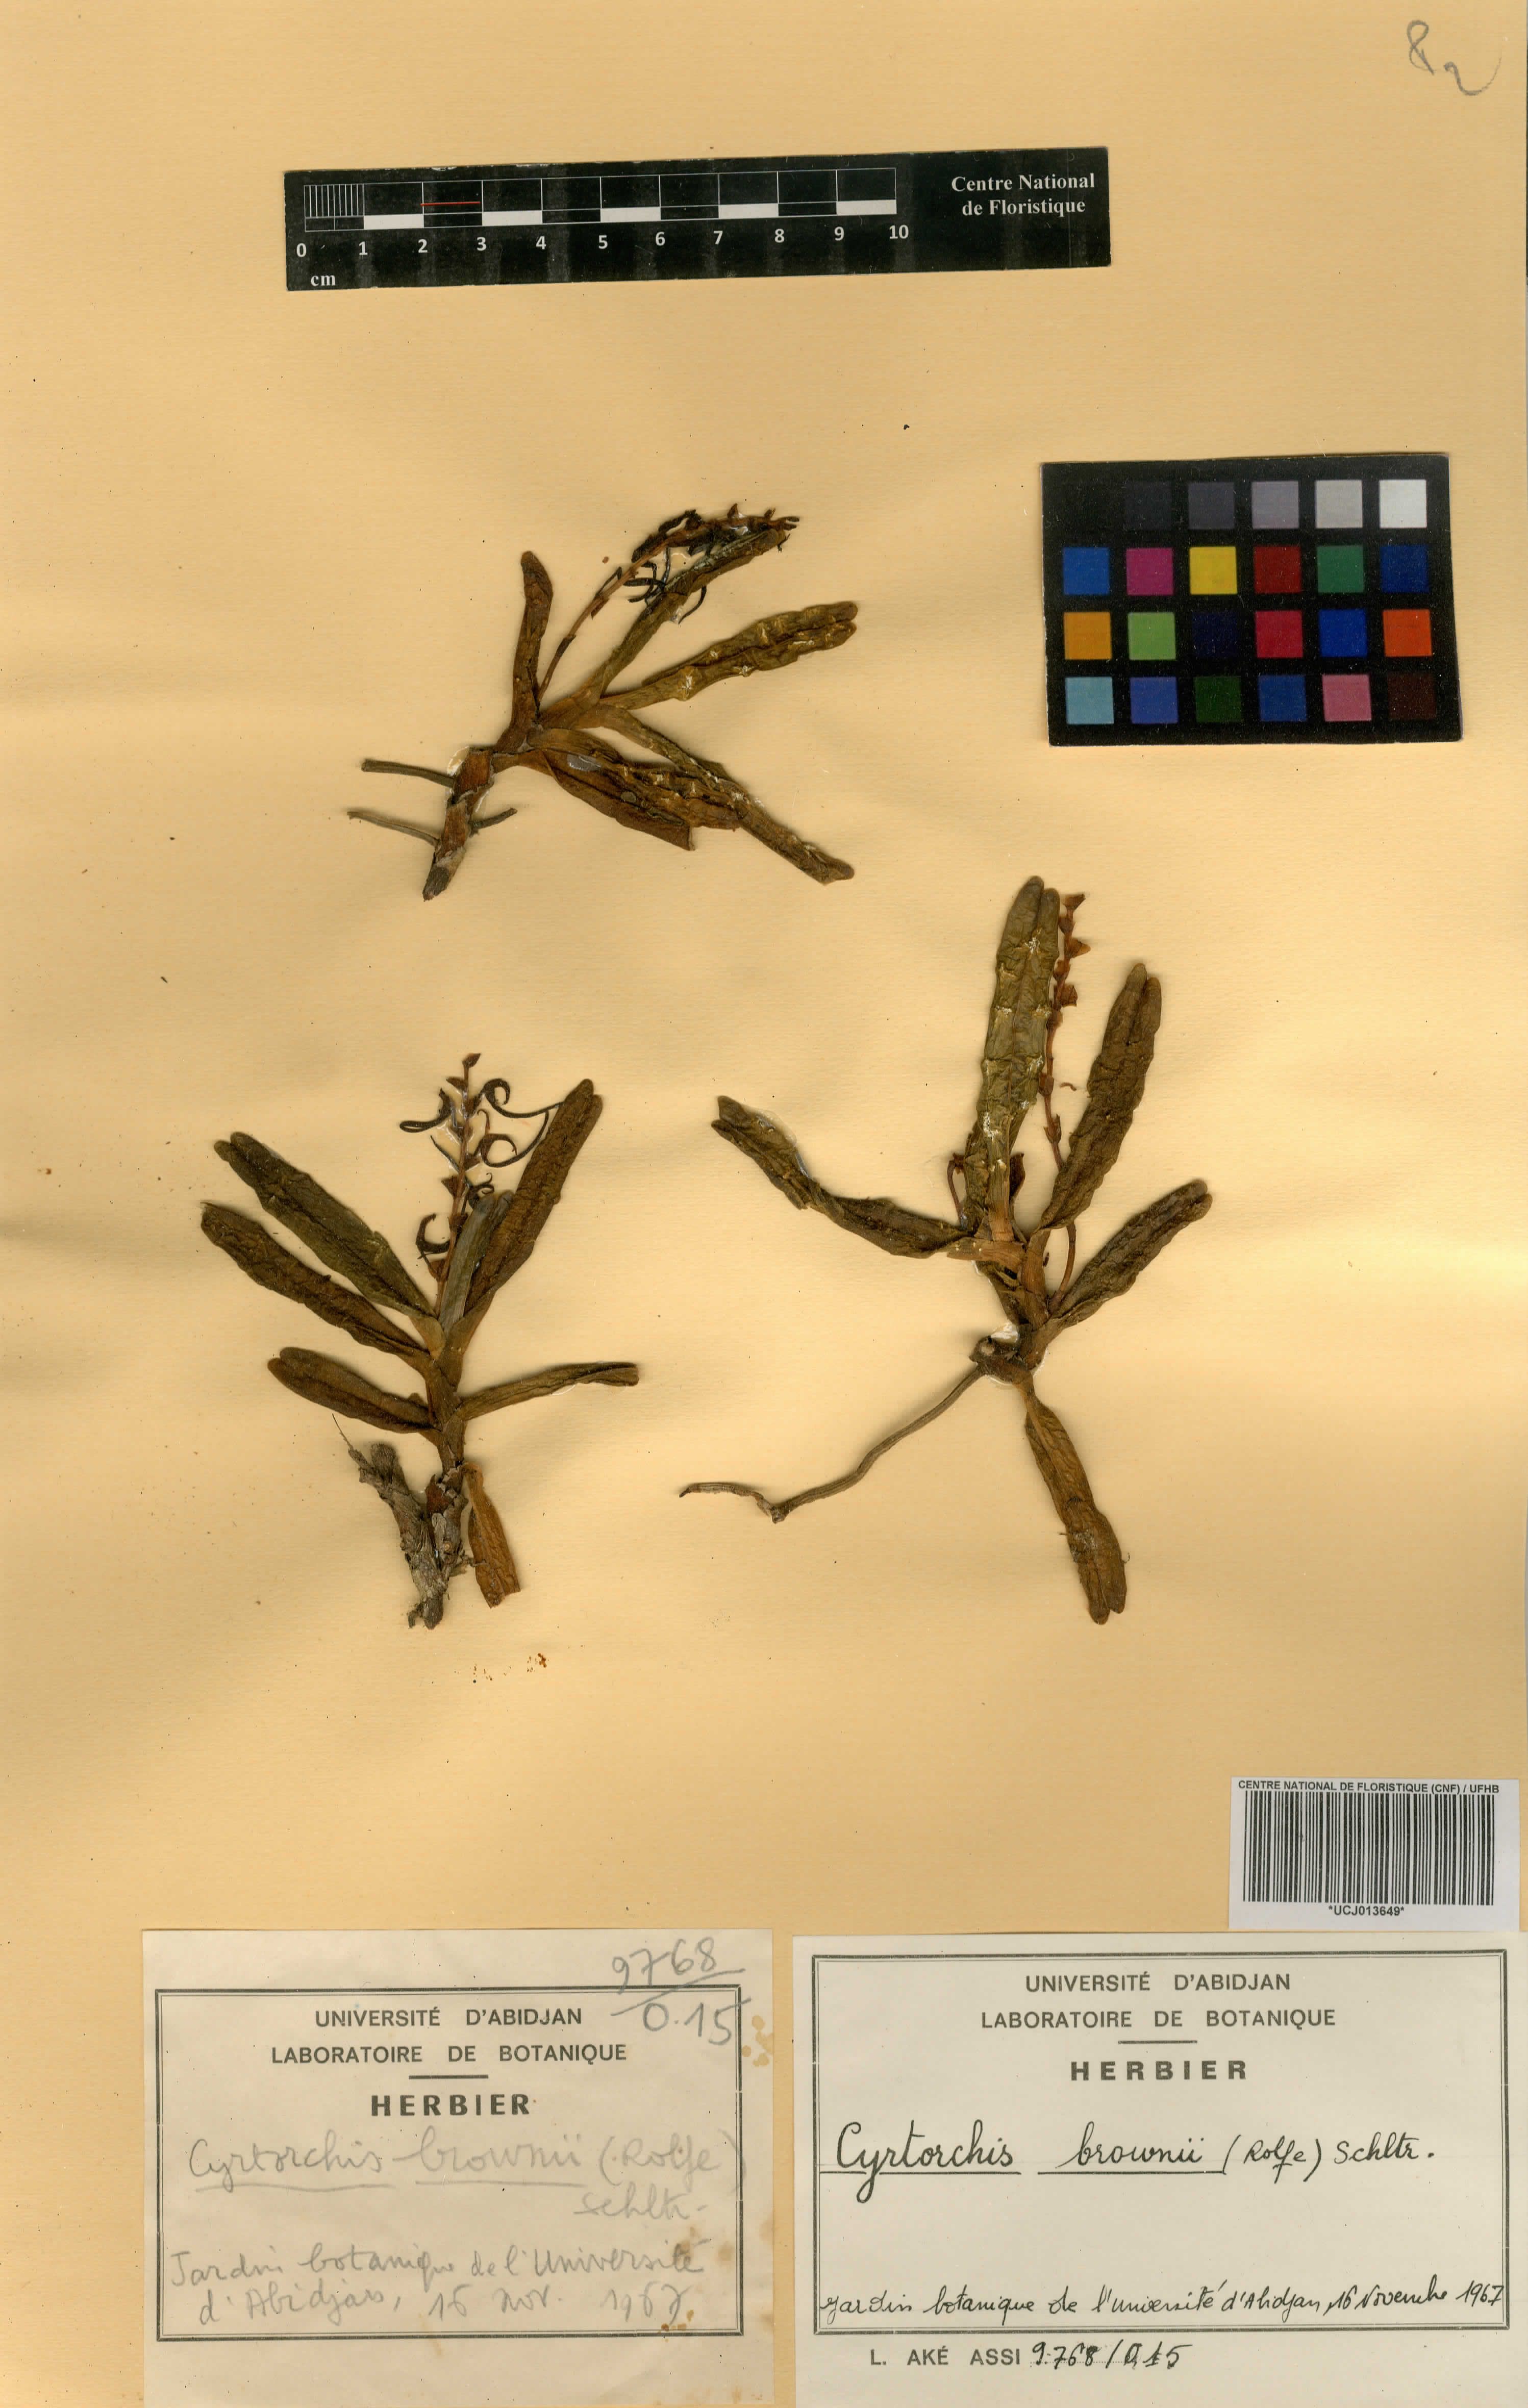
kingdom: Plantae
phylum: Tracheophyta
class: Liliopsida
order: Asparagales
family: Orchidaceae
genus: Cyrtorchis
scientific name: Cyrtorchis brownii
